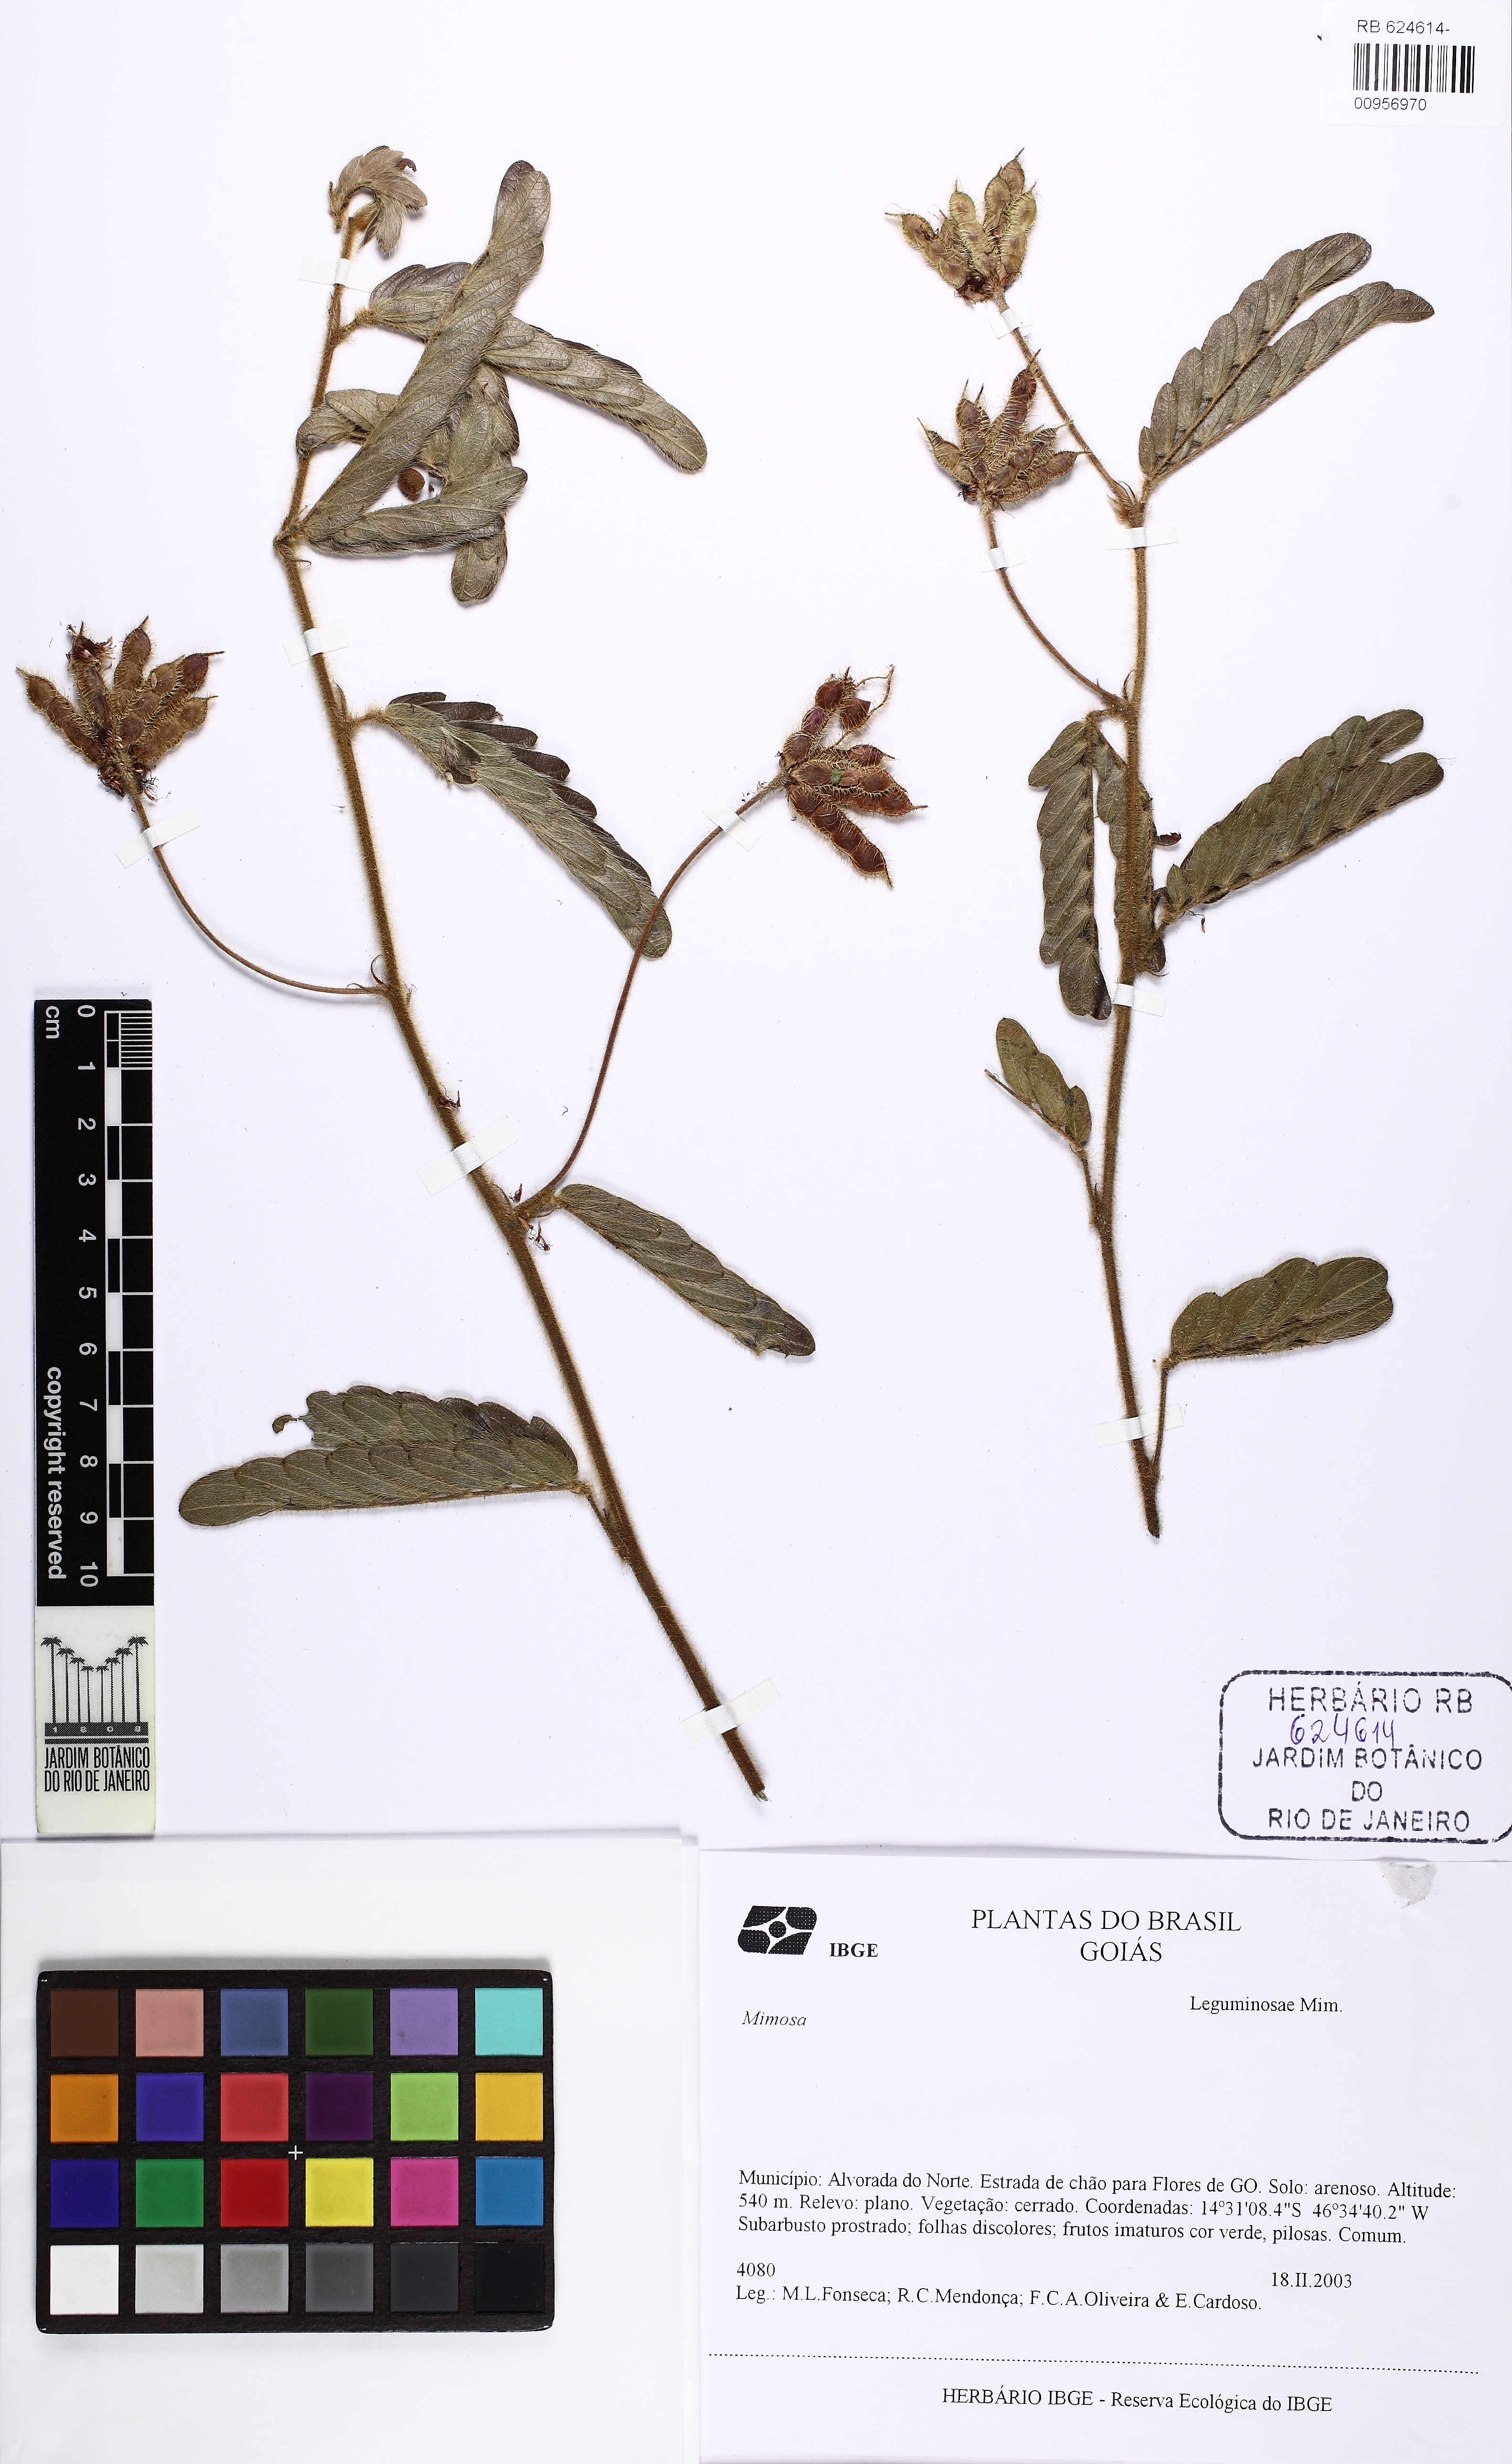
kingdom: Plantae
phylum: Tracheophyta
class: Magnoliopsida
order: Fabales
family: Fabaceae
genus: Mimosa
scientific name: Mimosa
